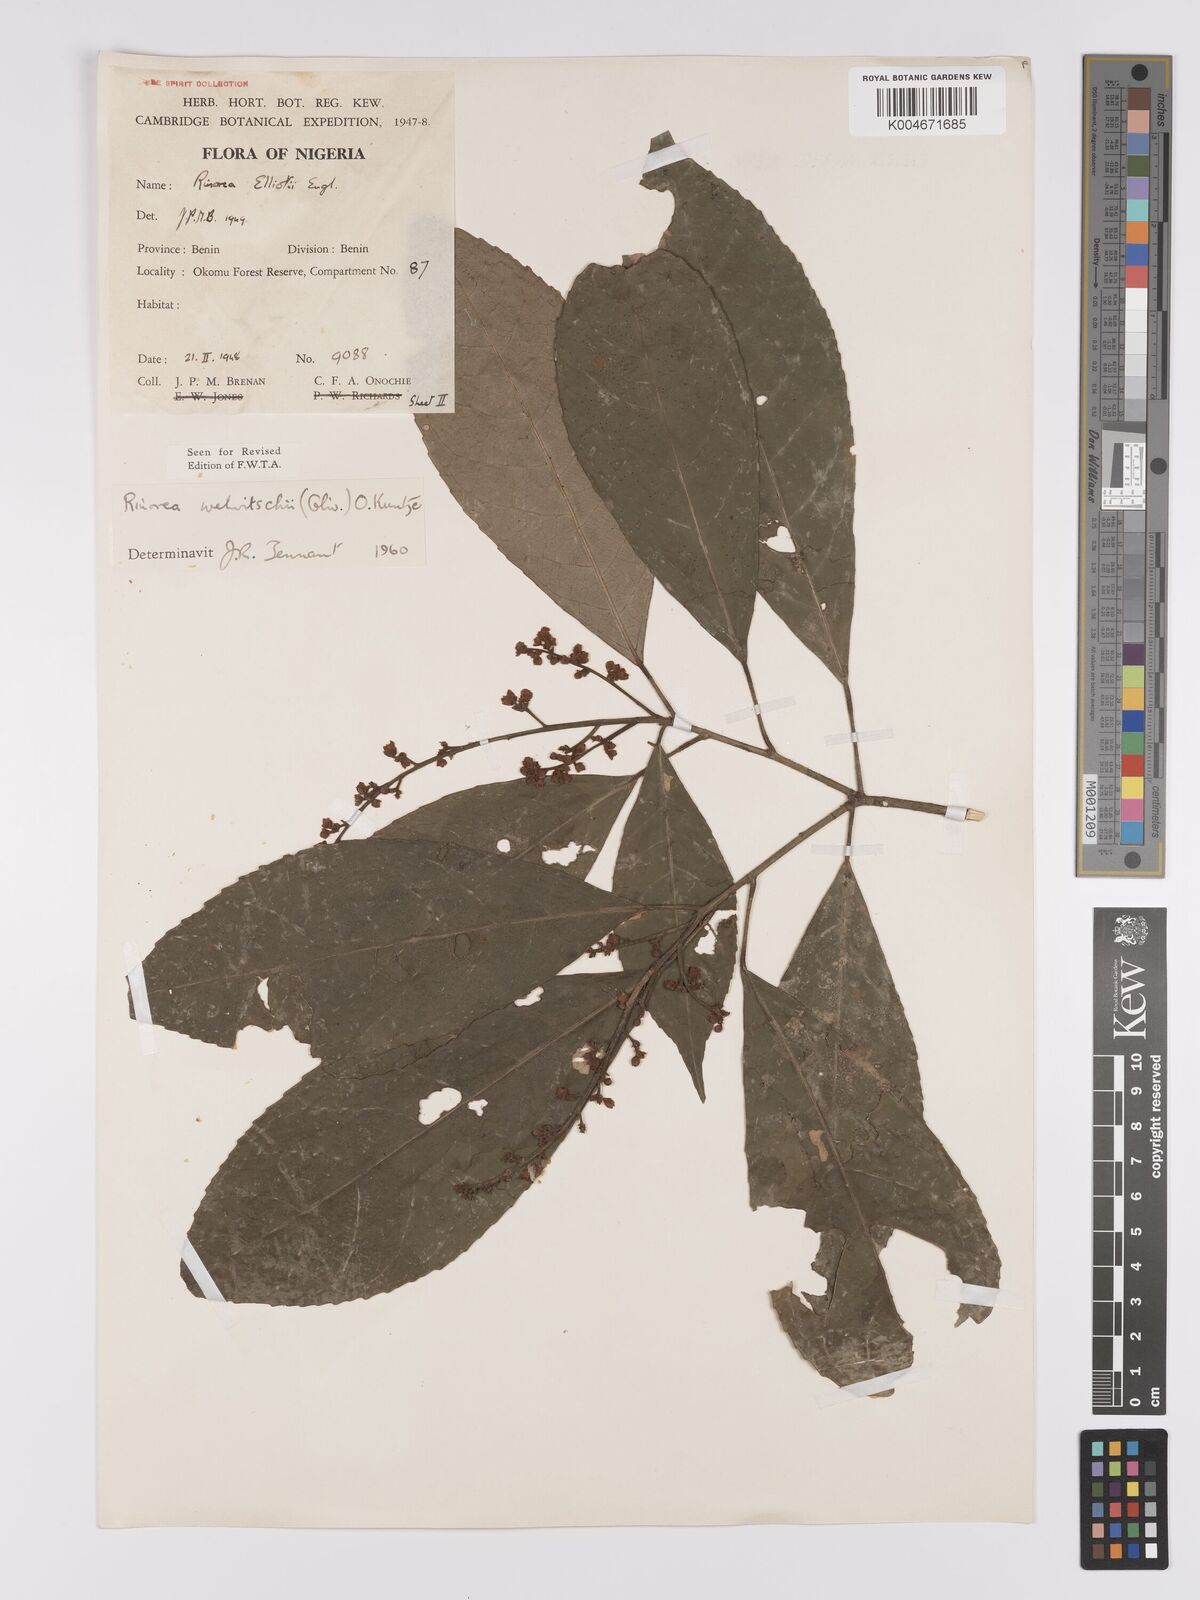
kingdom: Plantae
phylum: Tracheophyta
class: Magnoliopsida
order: Malpighiales
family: Violaceae
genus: Rinorea
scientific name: Rinorea welwitschii
